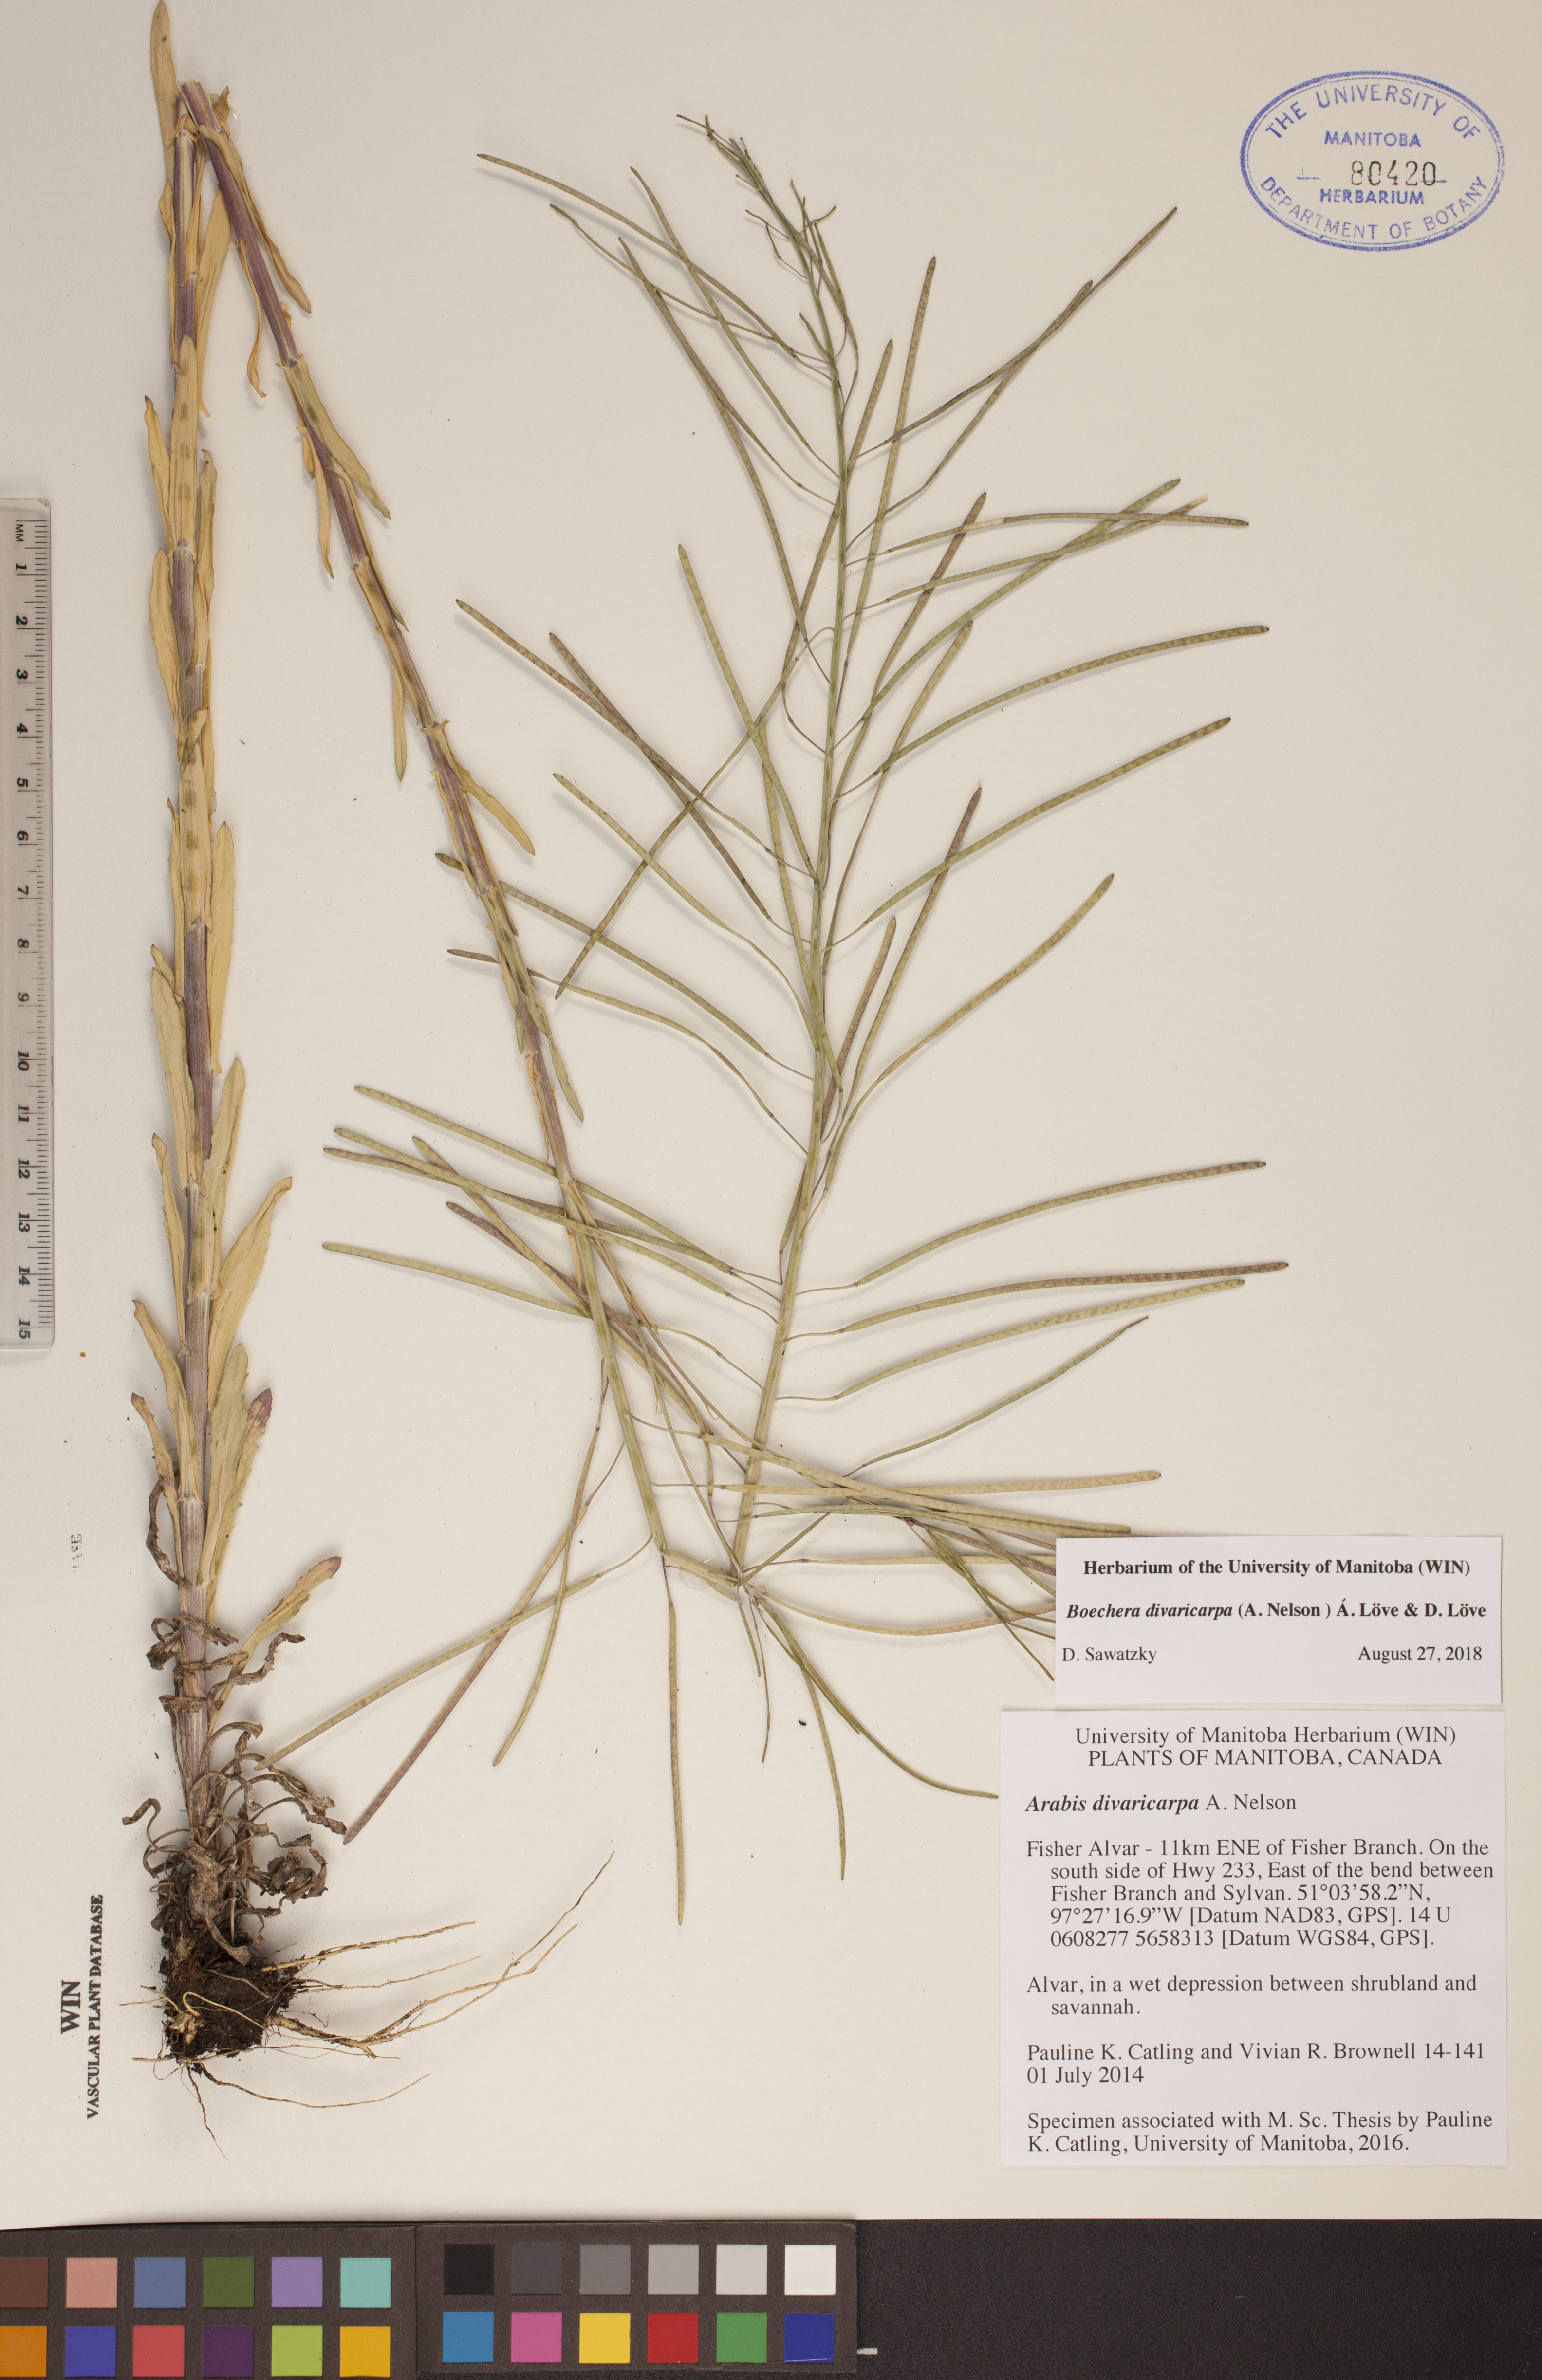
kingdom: Plantae
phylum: Tracheophyta
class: Magnoliopsida
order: Brassicales
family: Brassicaceae
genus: Boechera
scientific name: Boechera divaricarpa
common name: Divaricate rockcress
